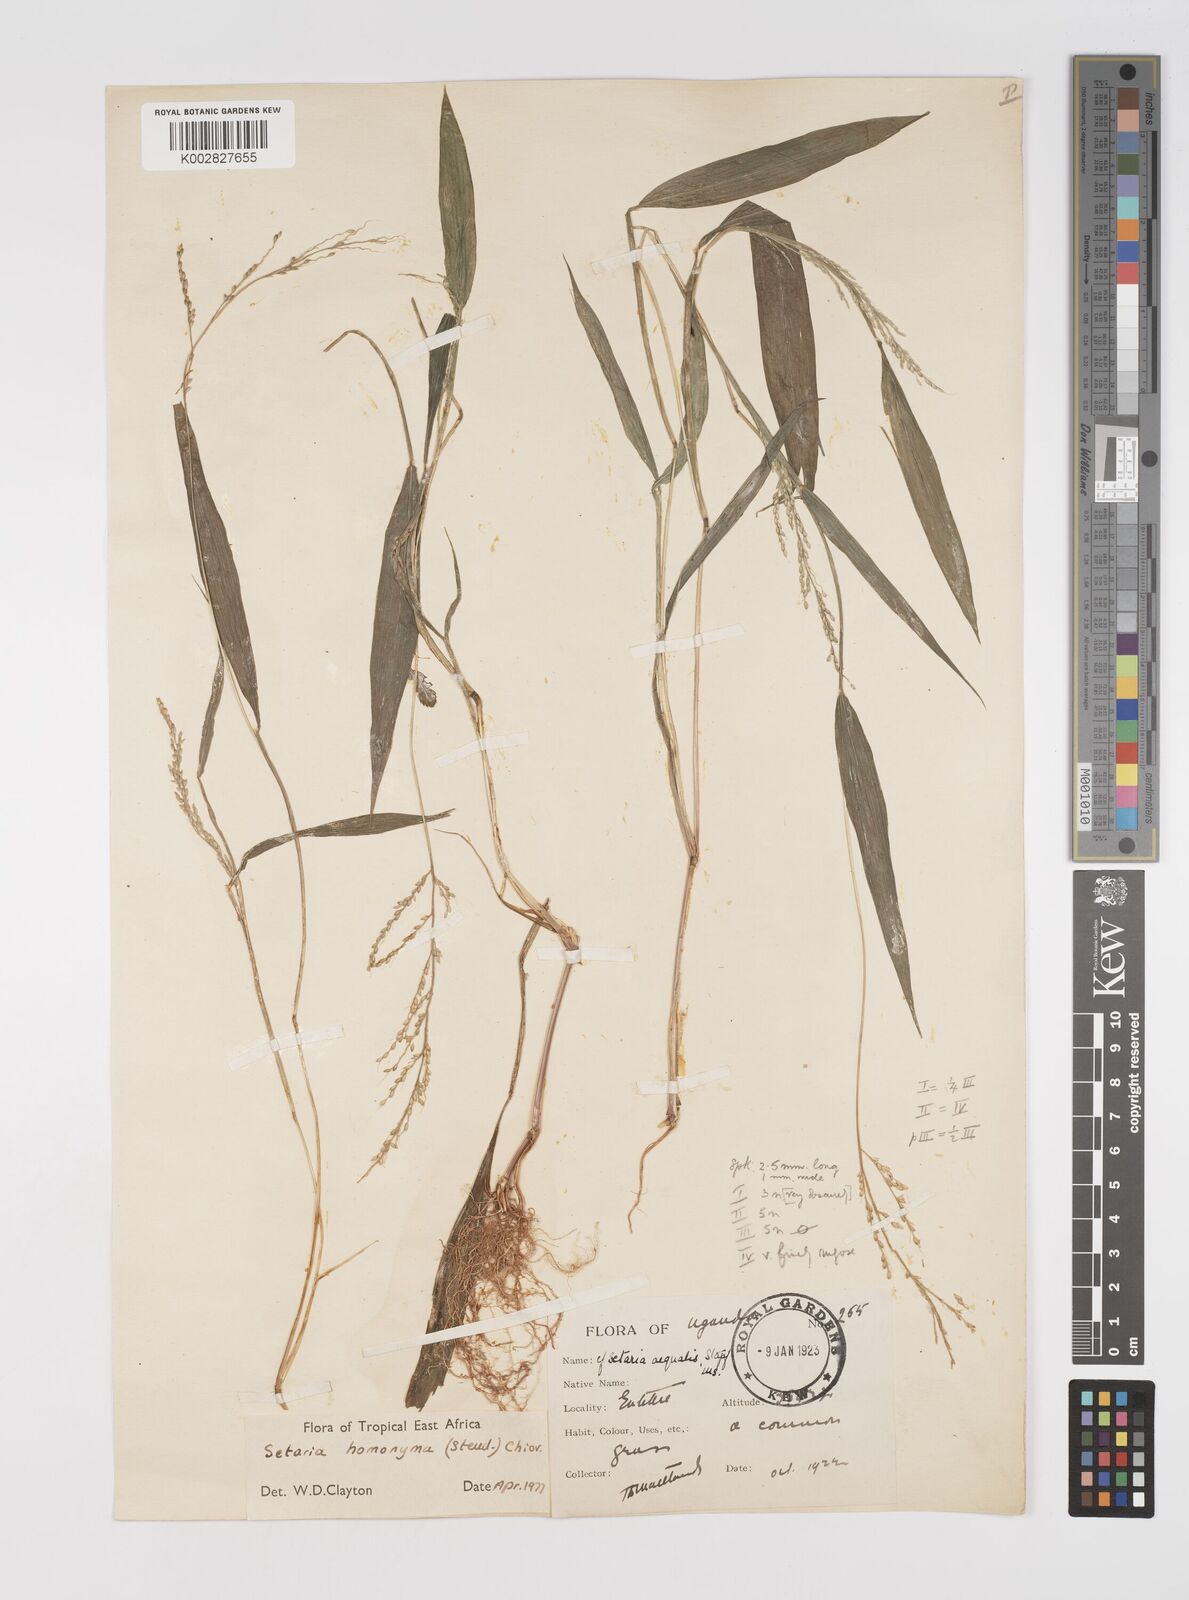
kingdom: Plantae
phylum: Tracheophyta
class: Liliopsida
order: Poales
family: Poaceae
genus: Setaria
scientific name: Setaria homonyma
